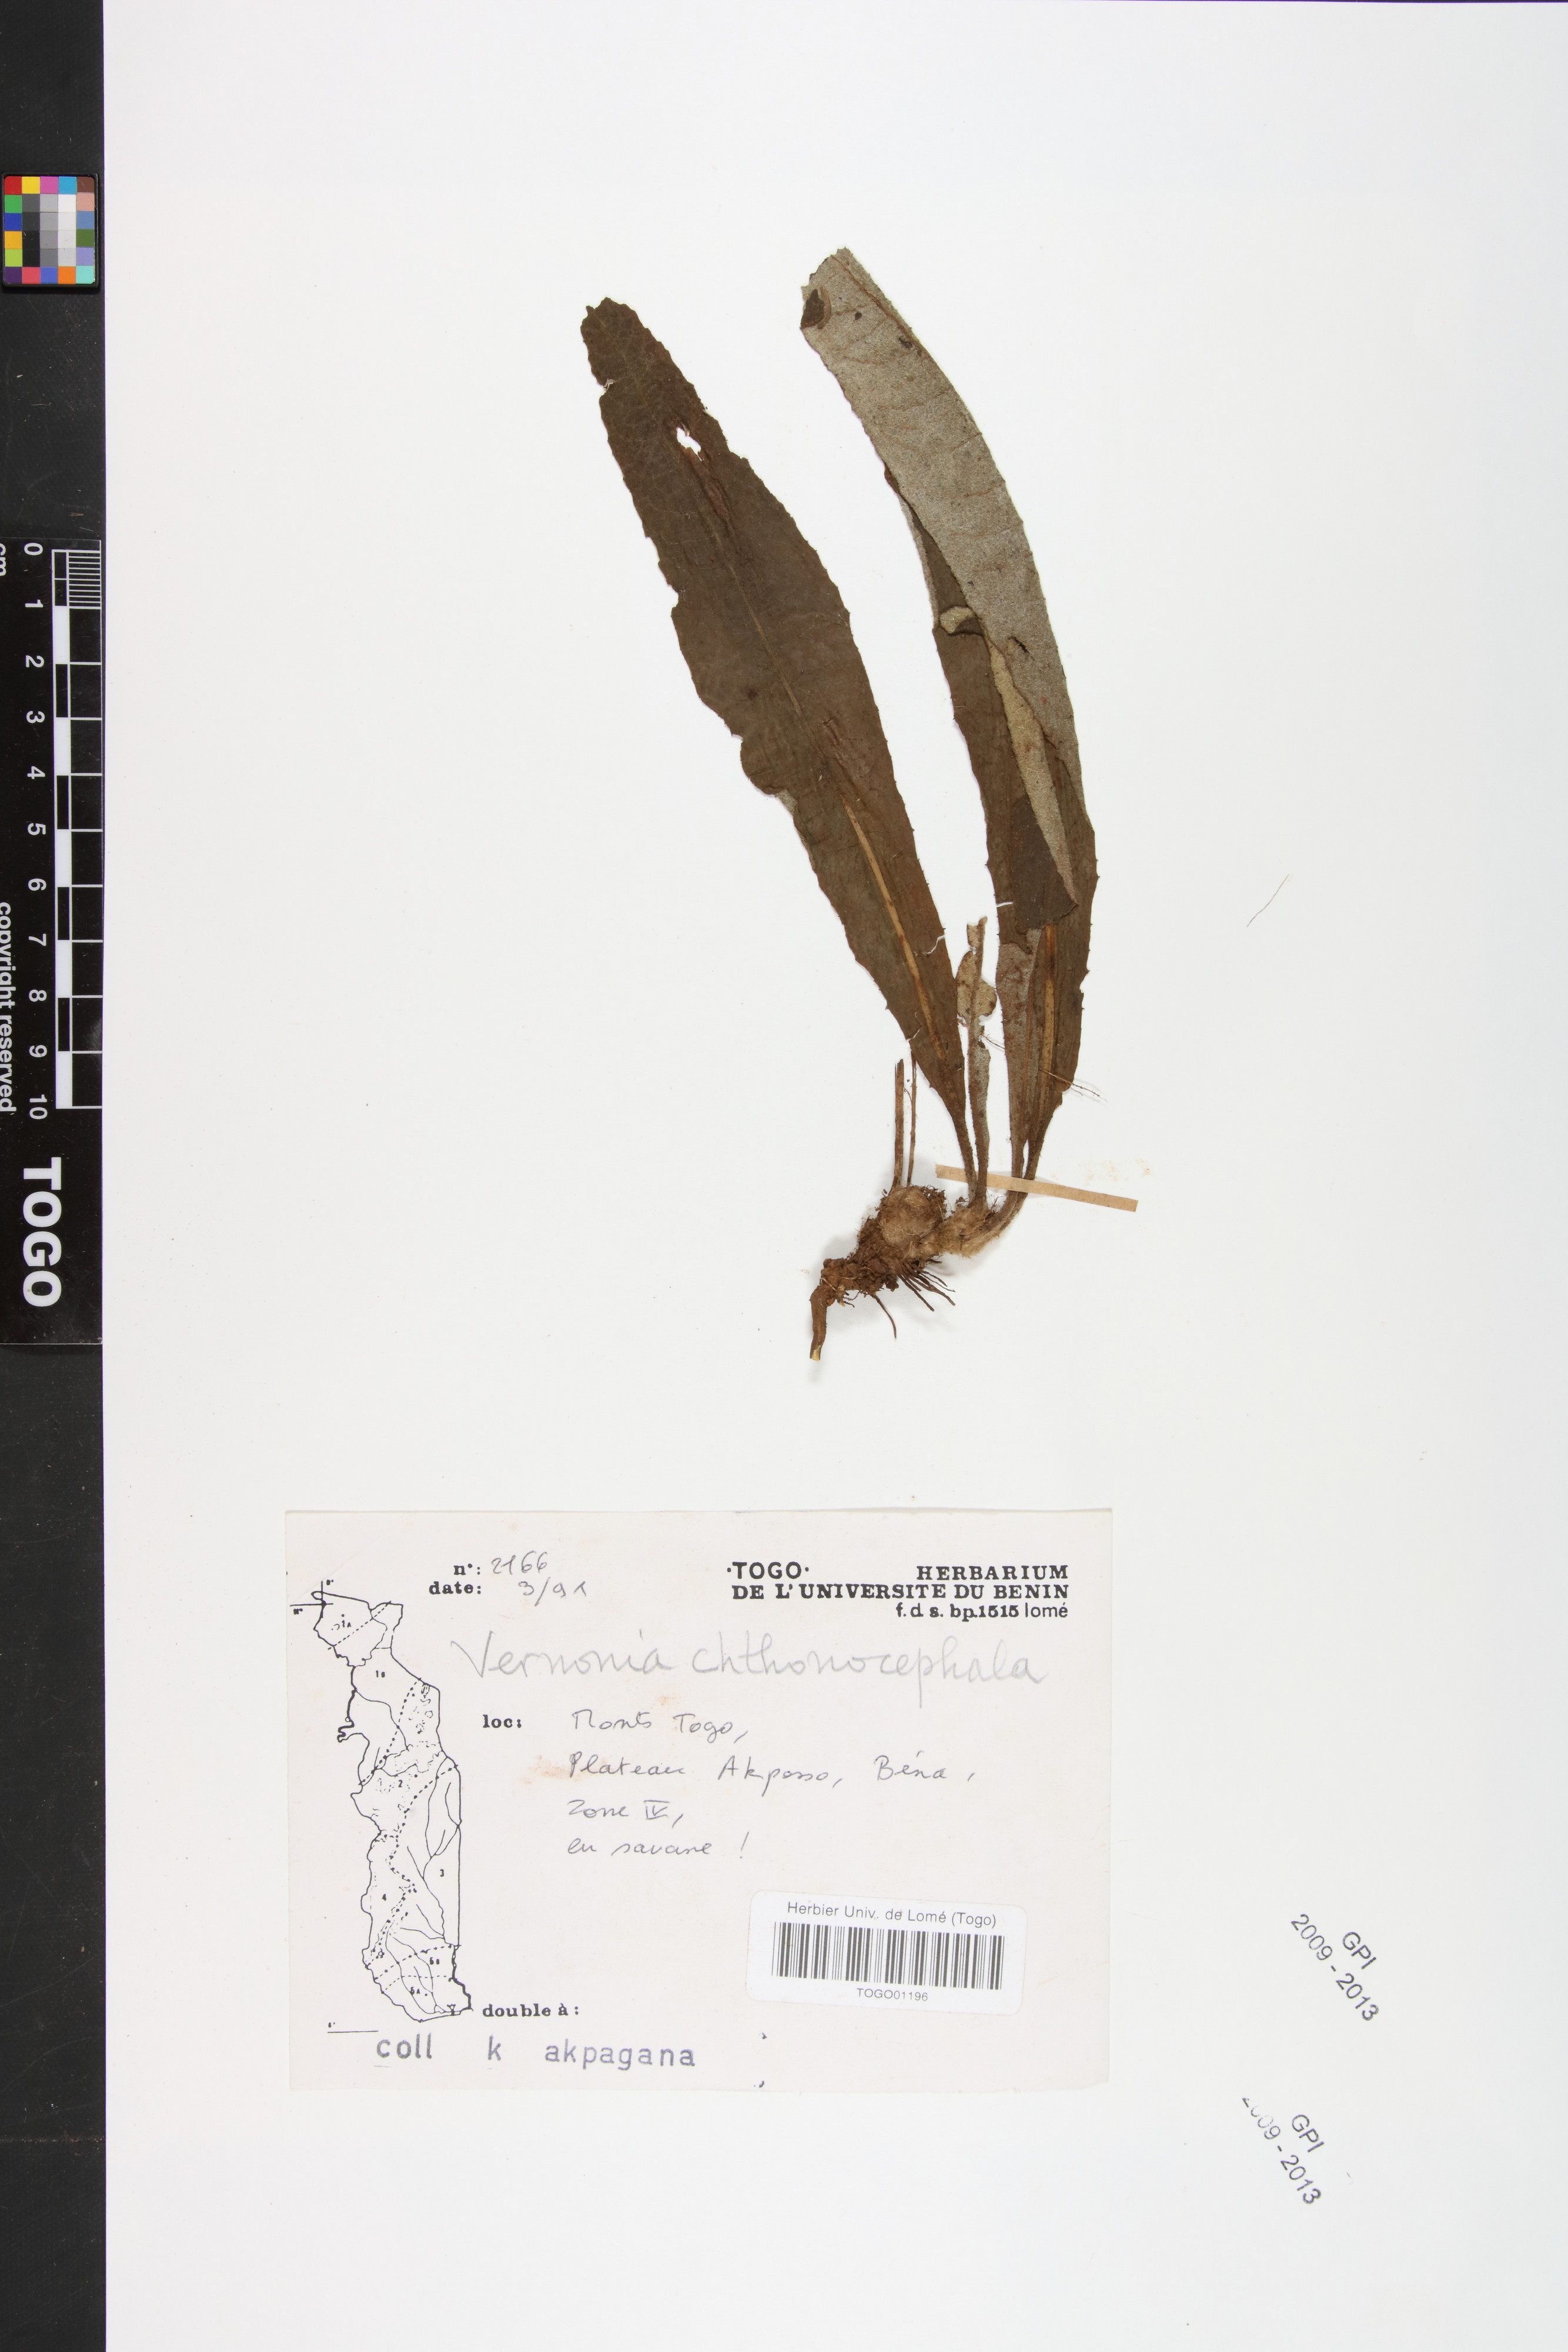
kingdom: Plantae
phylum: Tracheophyta
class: Magnoliopsida
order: Asterales
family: Asteraceae
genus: Vernonella
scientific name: Vernonella chthonocephala
